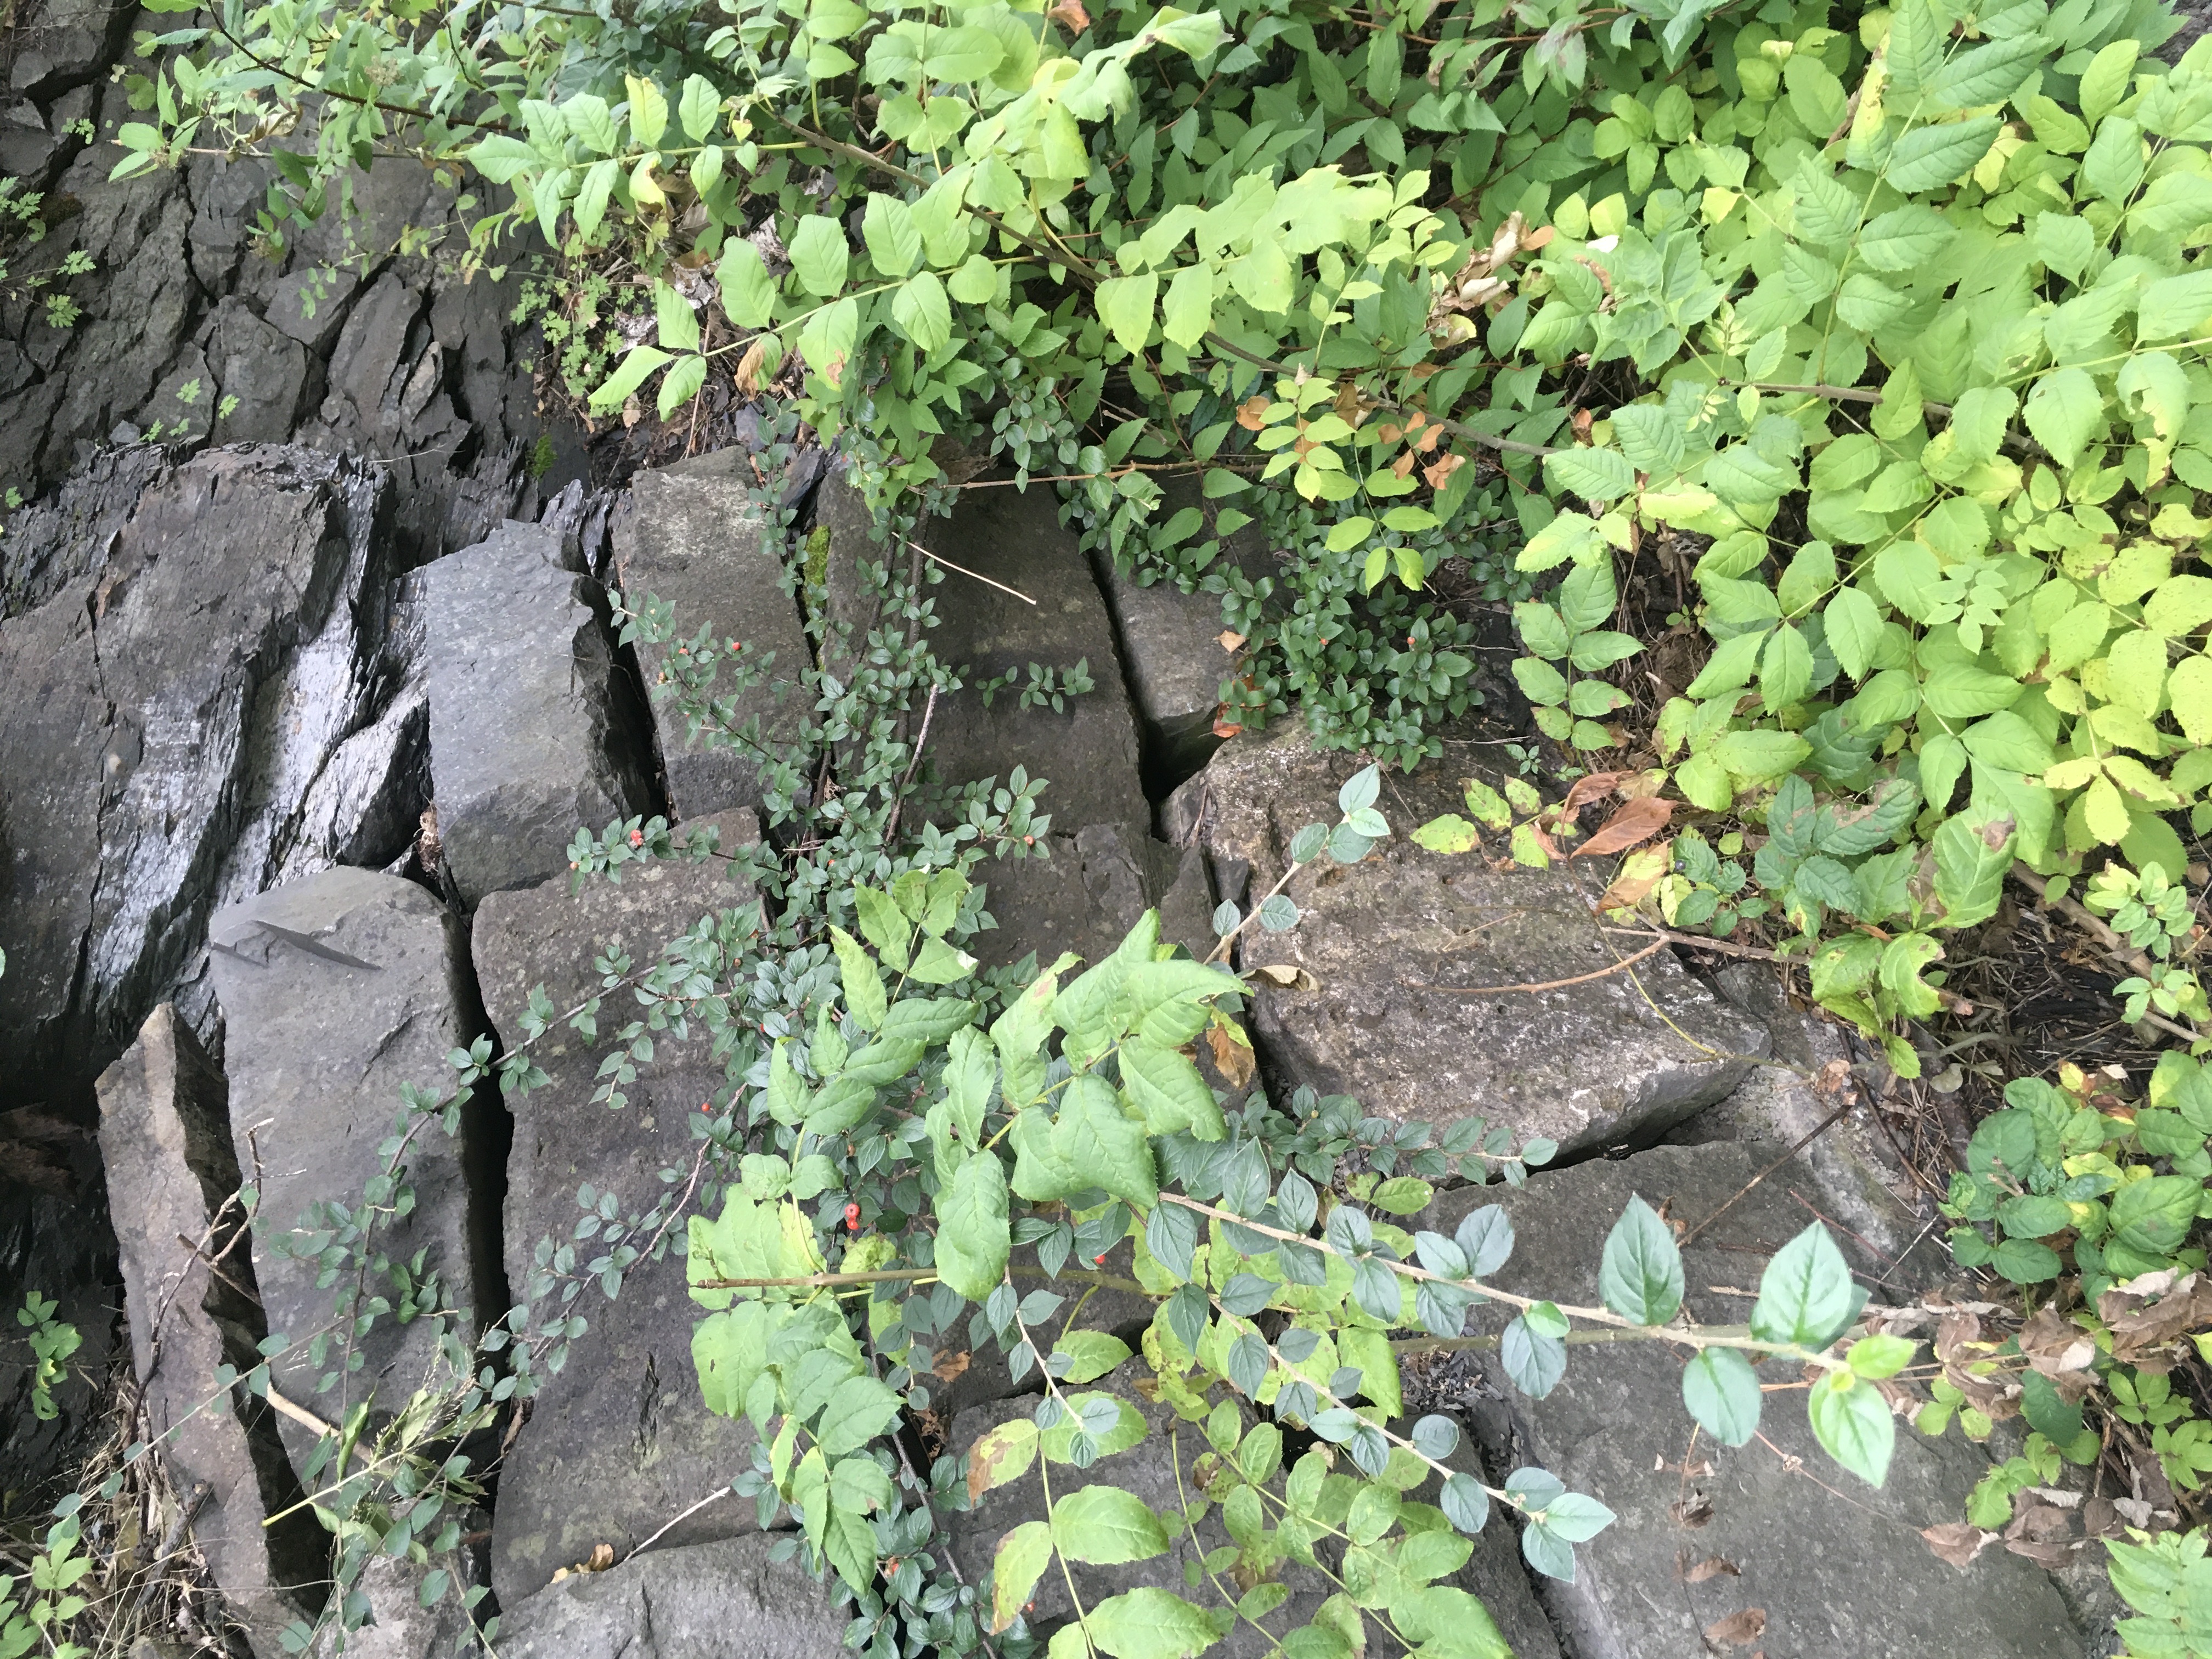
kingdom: Plantae
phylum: Tracheophyta
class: Magnoliopsida
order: Rosales
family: Rosaceae
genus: Cotoneaster
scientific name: Cotoneaster divaricatus
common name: sprikemispel
